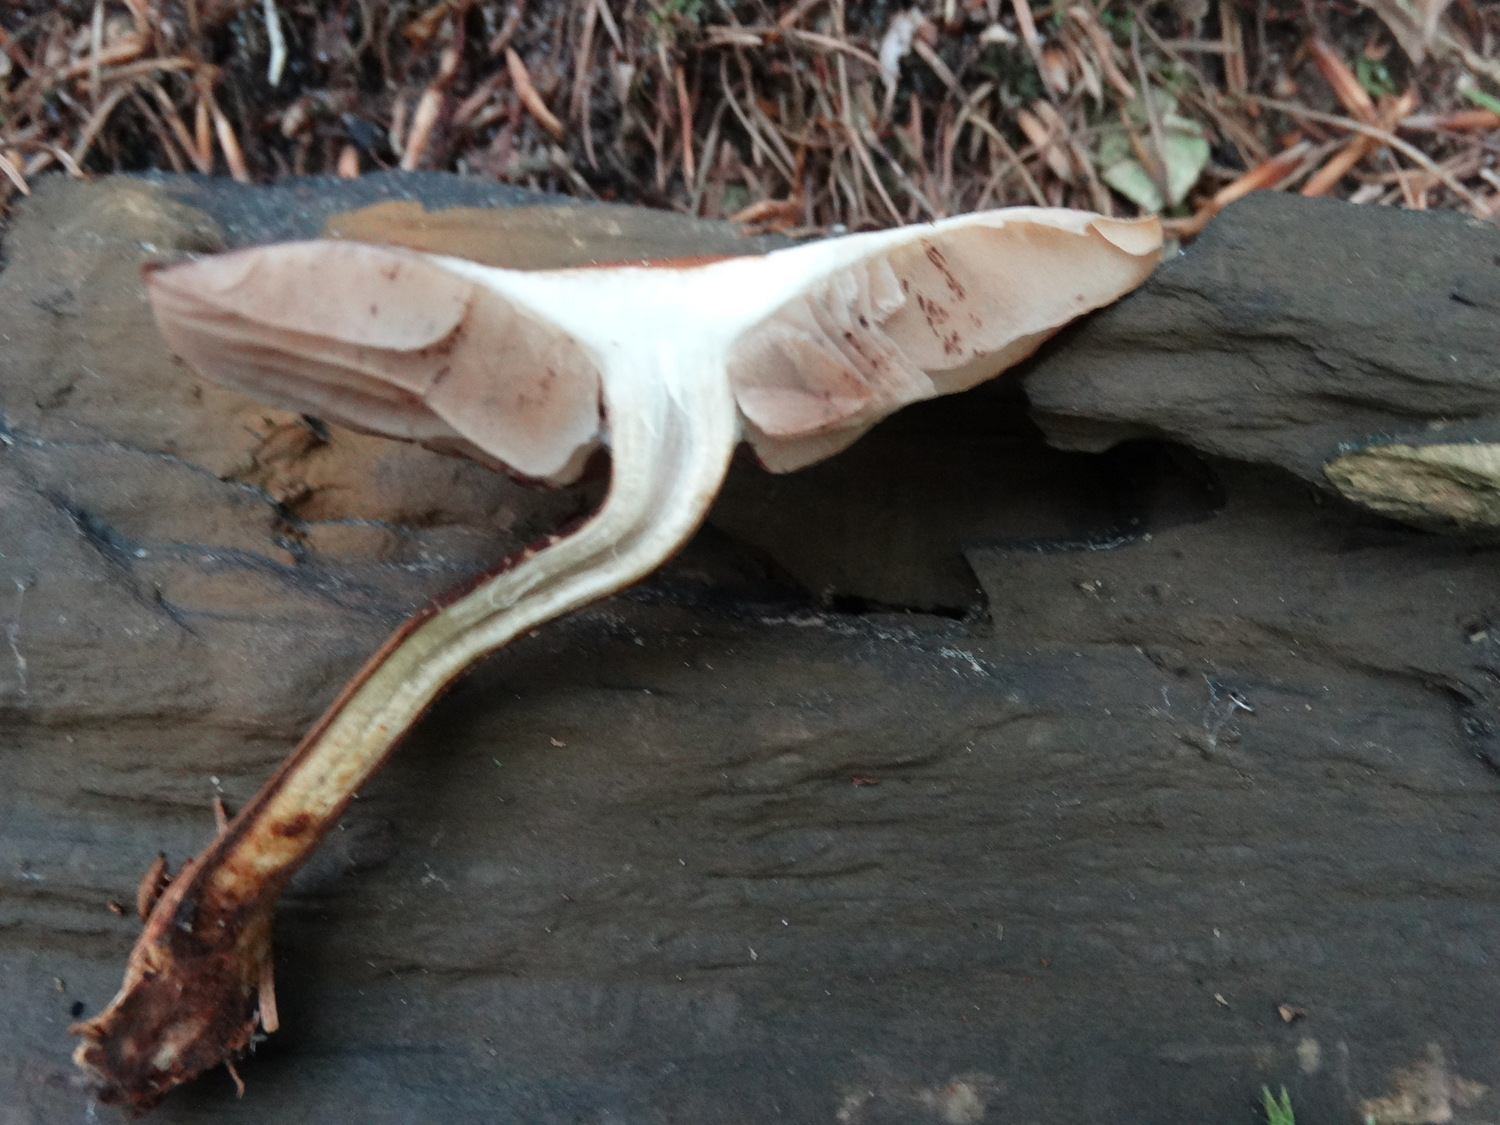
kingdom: Fungi
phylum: Basidiomycota
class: Agaricomycetes
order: Agaricales
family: Strophariaceae
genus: Kuehneromyces
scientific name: Kuehneromyces mutabilis
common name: foranderlig skælhat
